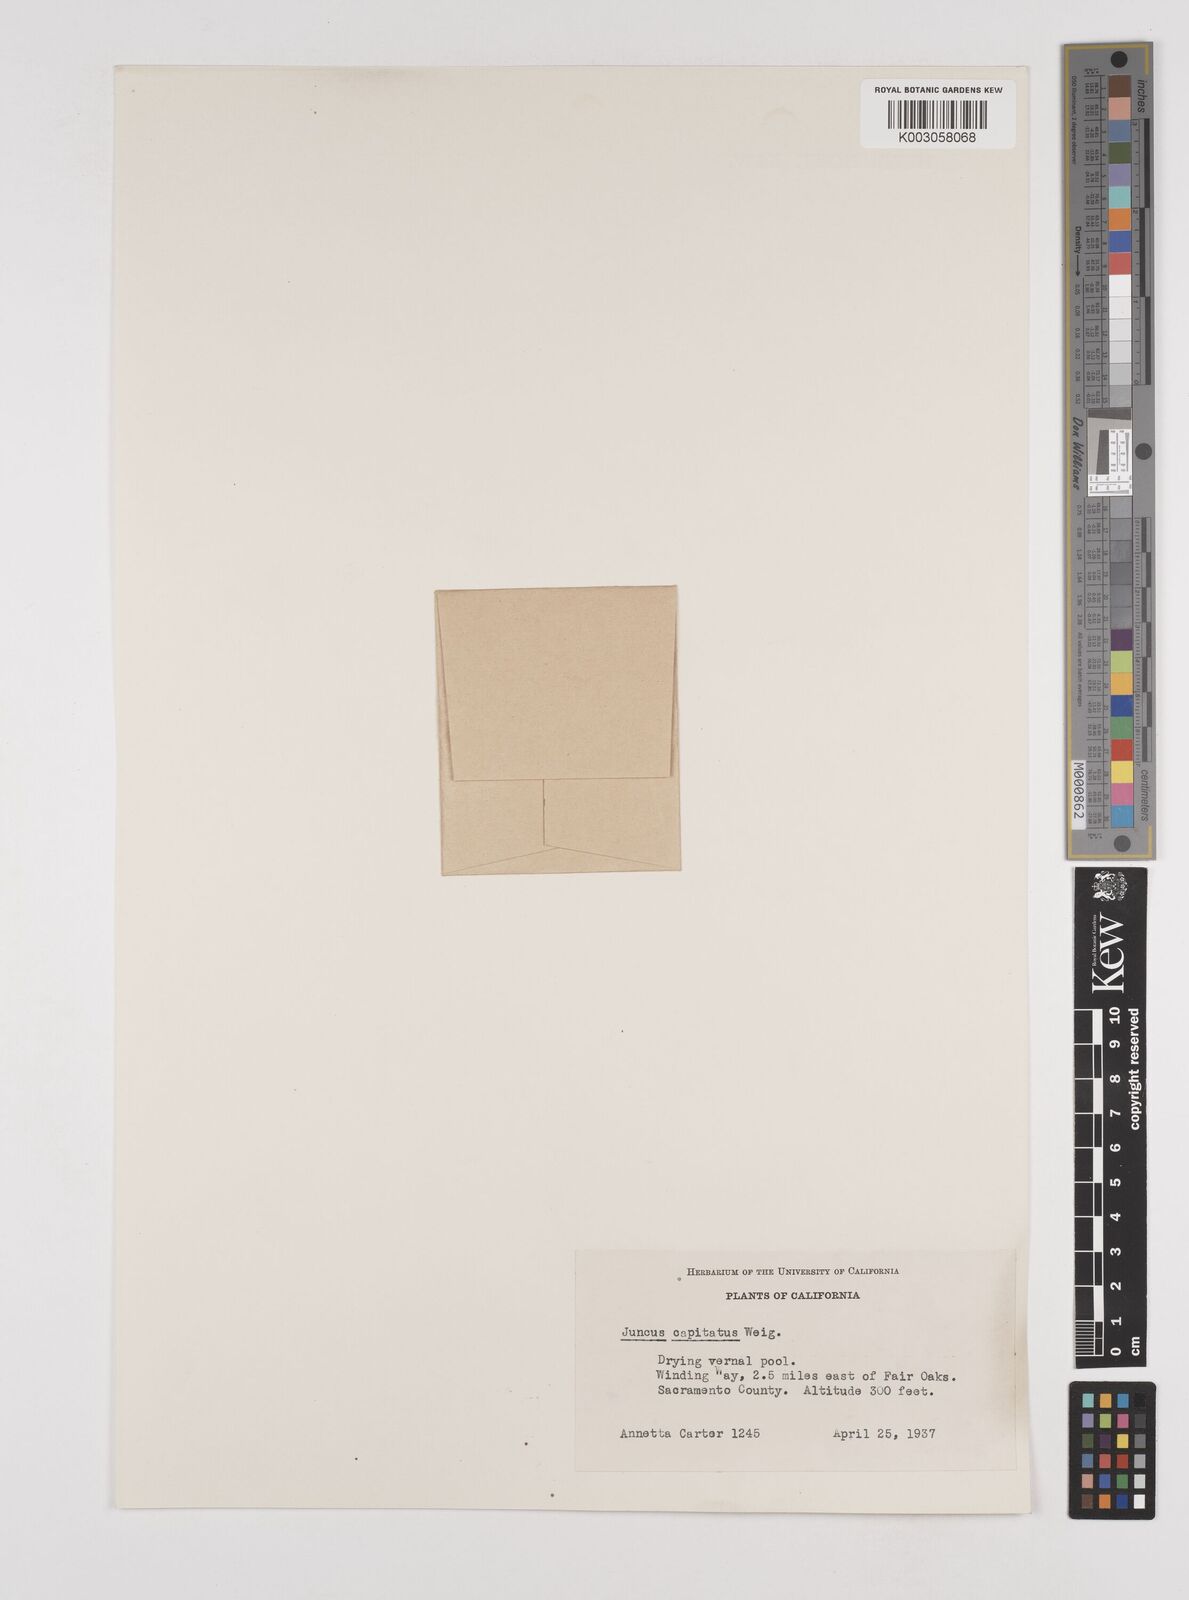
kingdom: Plantae
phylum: Tracheophyta
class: Liliopsida
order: Poales
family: Juncaceae
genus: Juncus
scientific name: Juncus capitatus
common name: Dwarf rush
